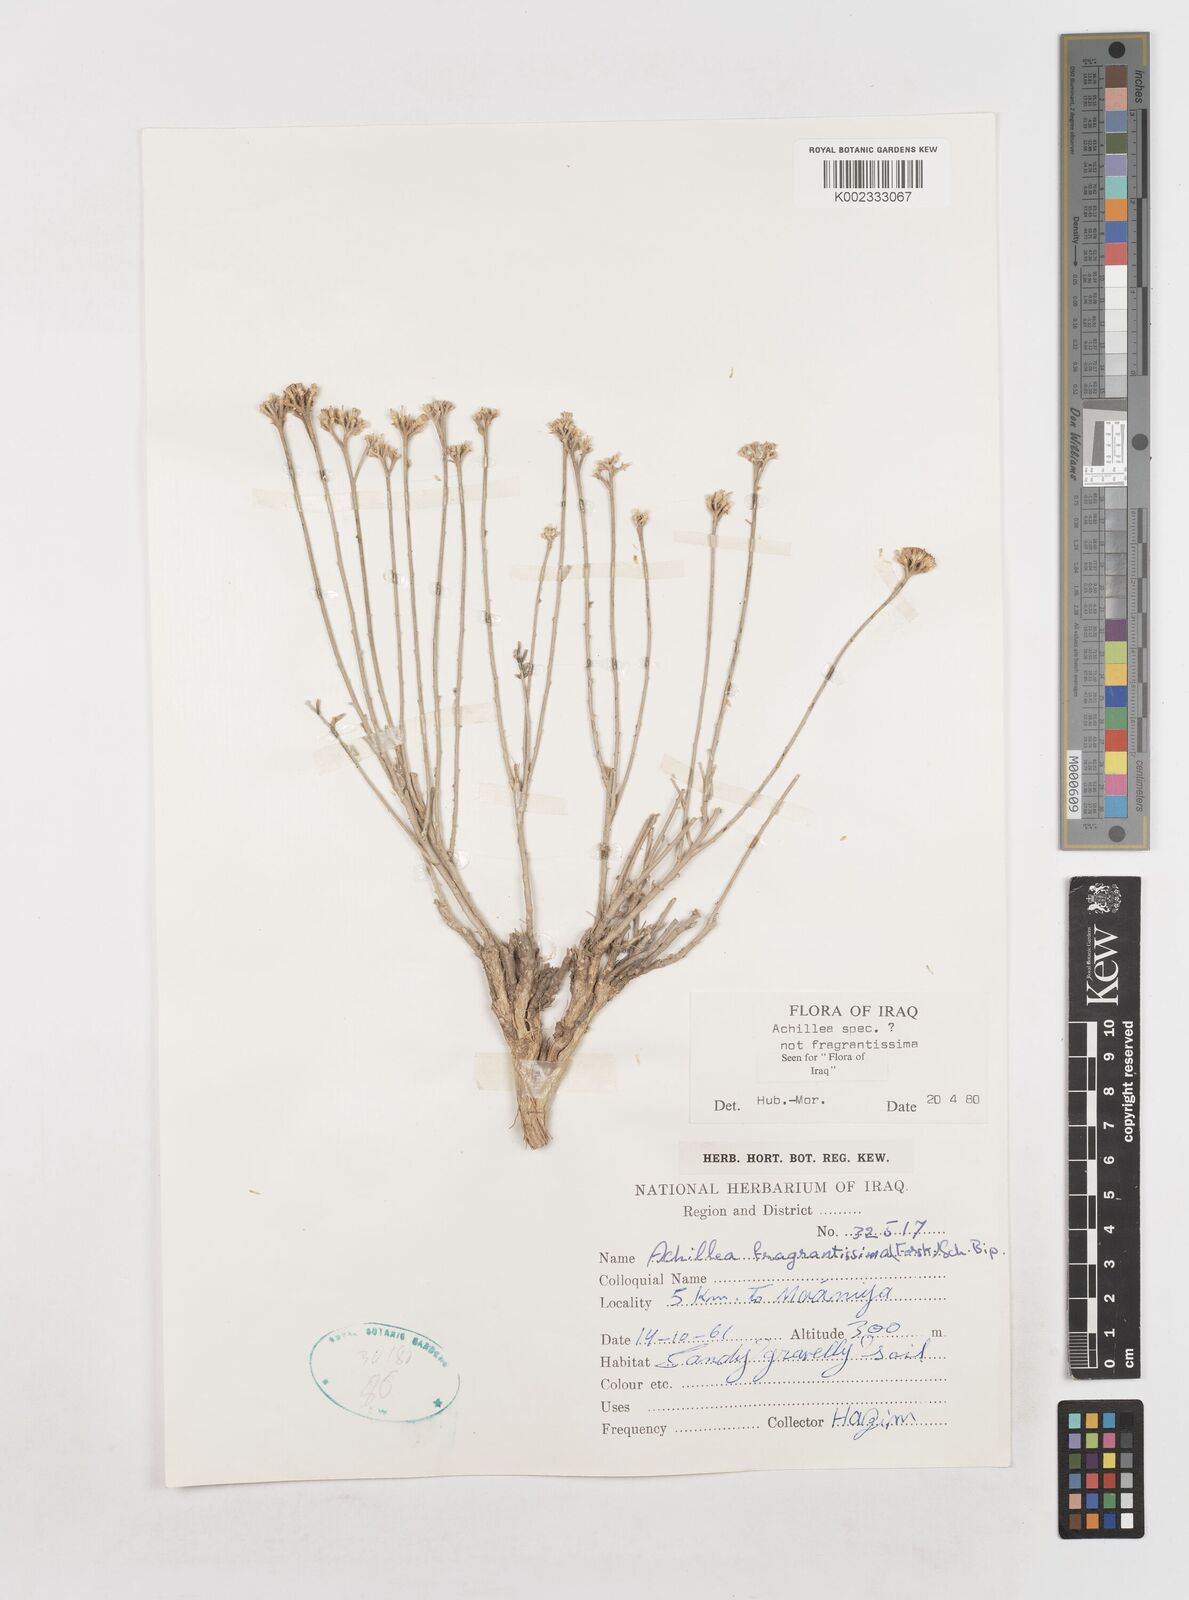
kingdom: Plantae
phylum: Tracheophyta
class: Magnoliopsida
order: Asterales
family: Asteraceae
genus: Achillea
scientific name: Achillea
